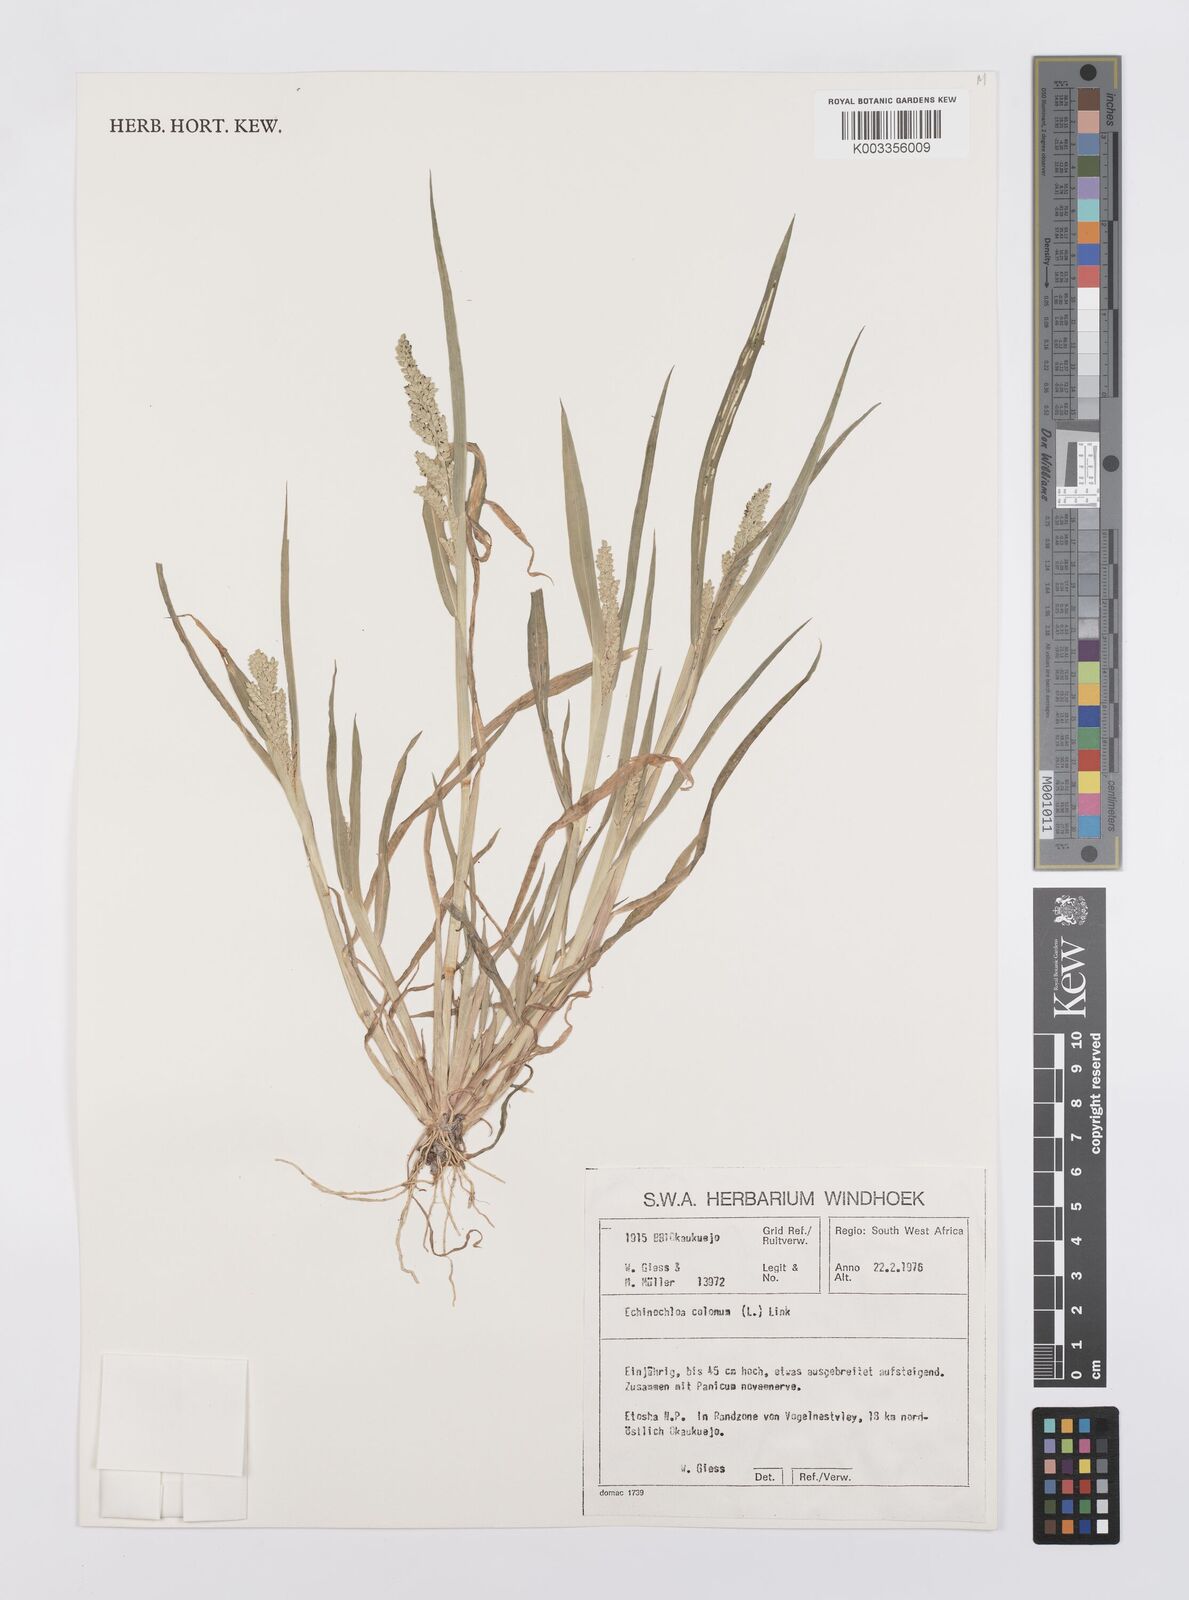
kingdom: Plantae
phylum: Tracheophyta
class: Liliopsida
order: Poales
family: Poaceae
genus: Echinochloa
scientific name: Echinochloa colonum
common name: Jungle rice
